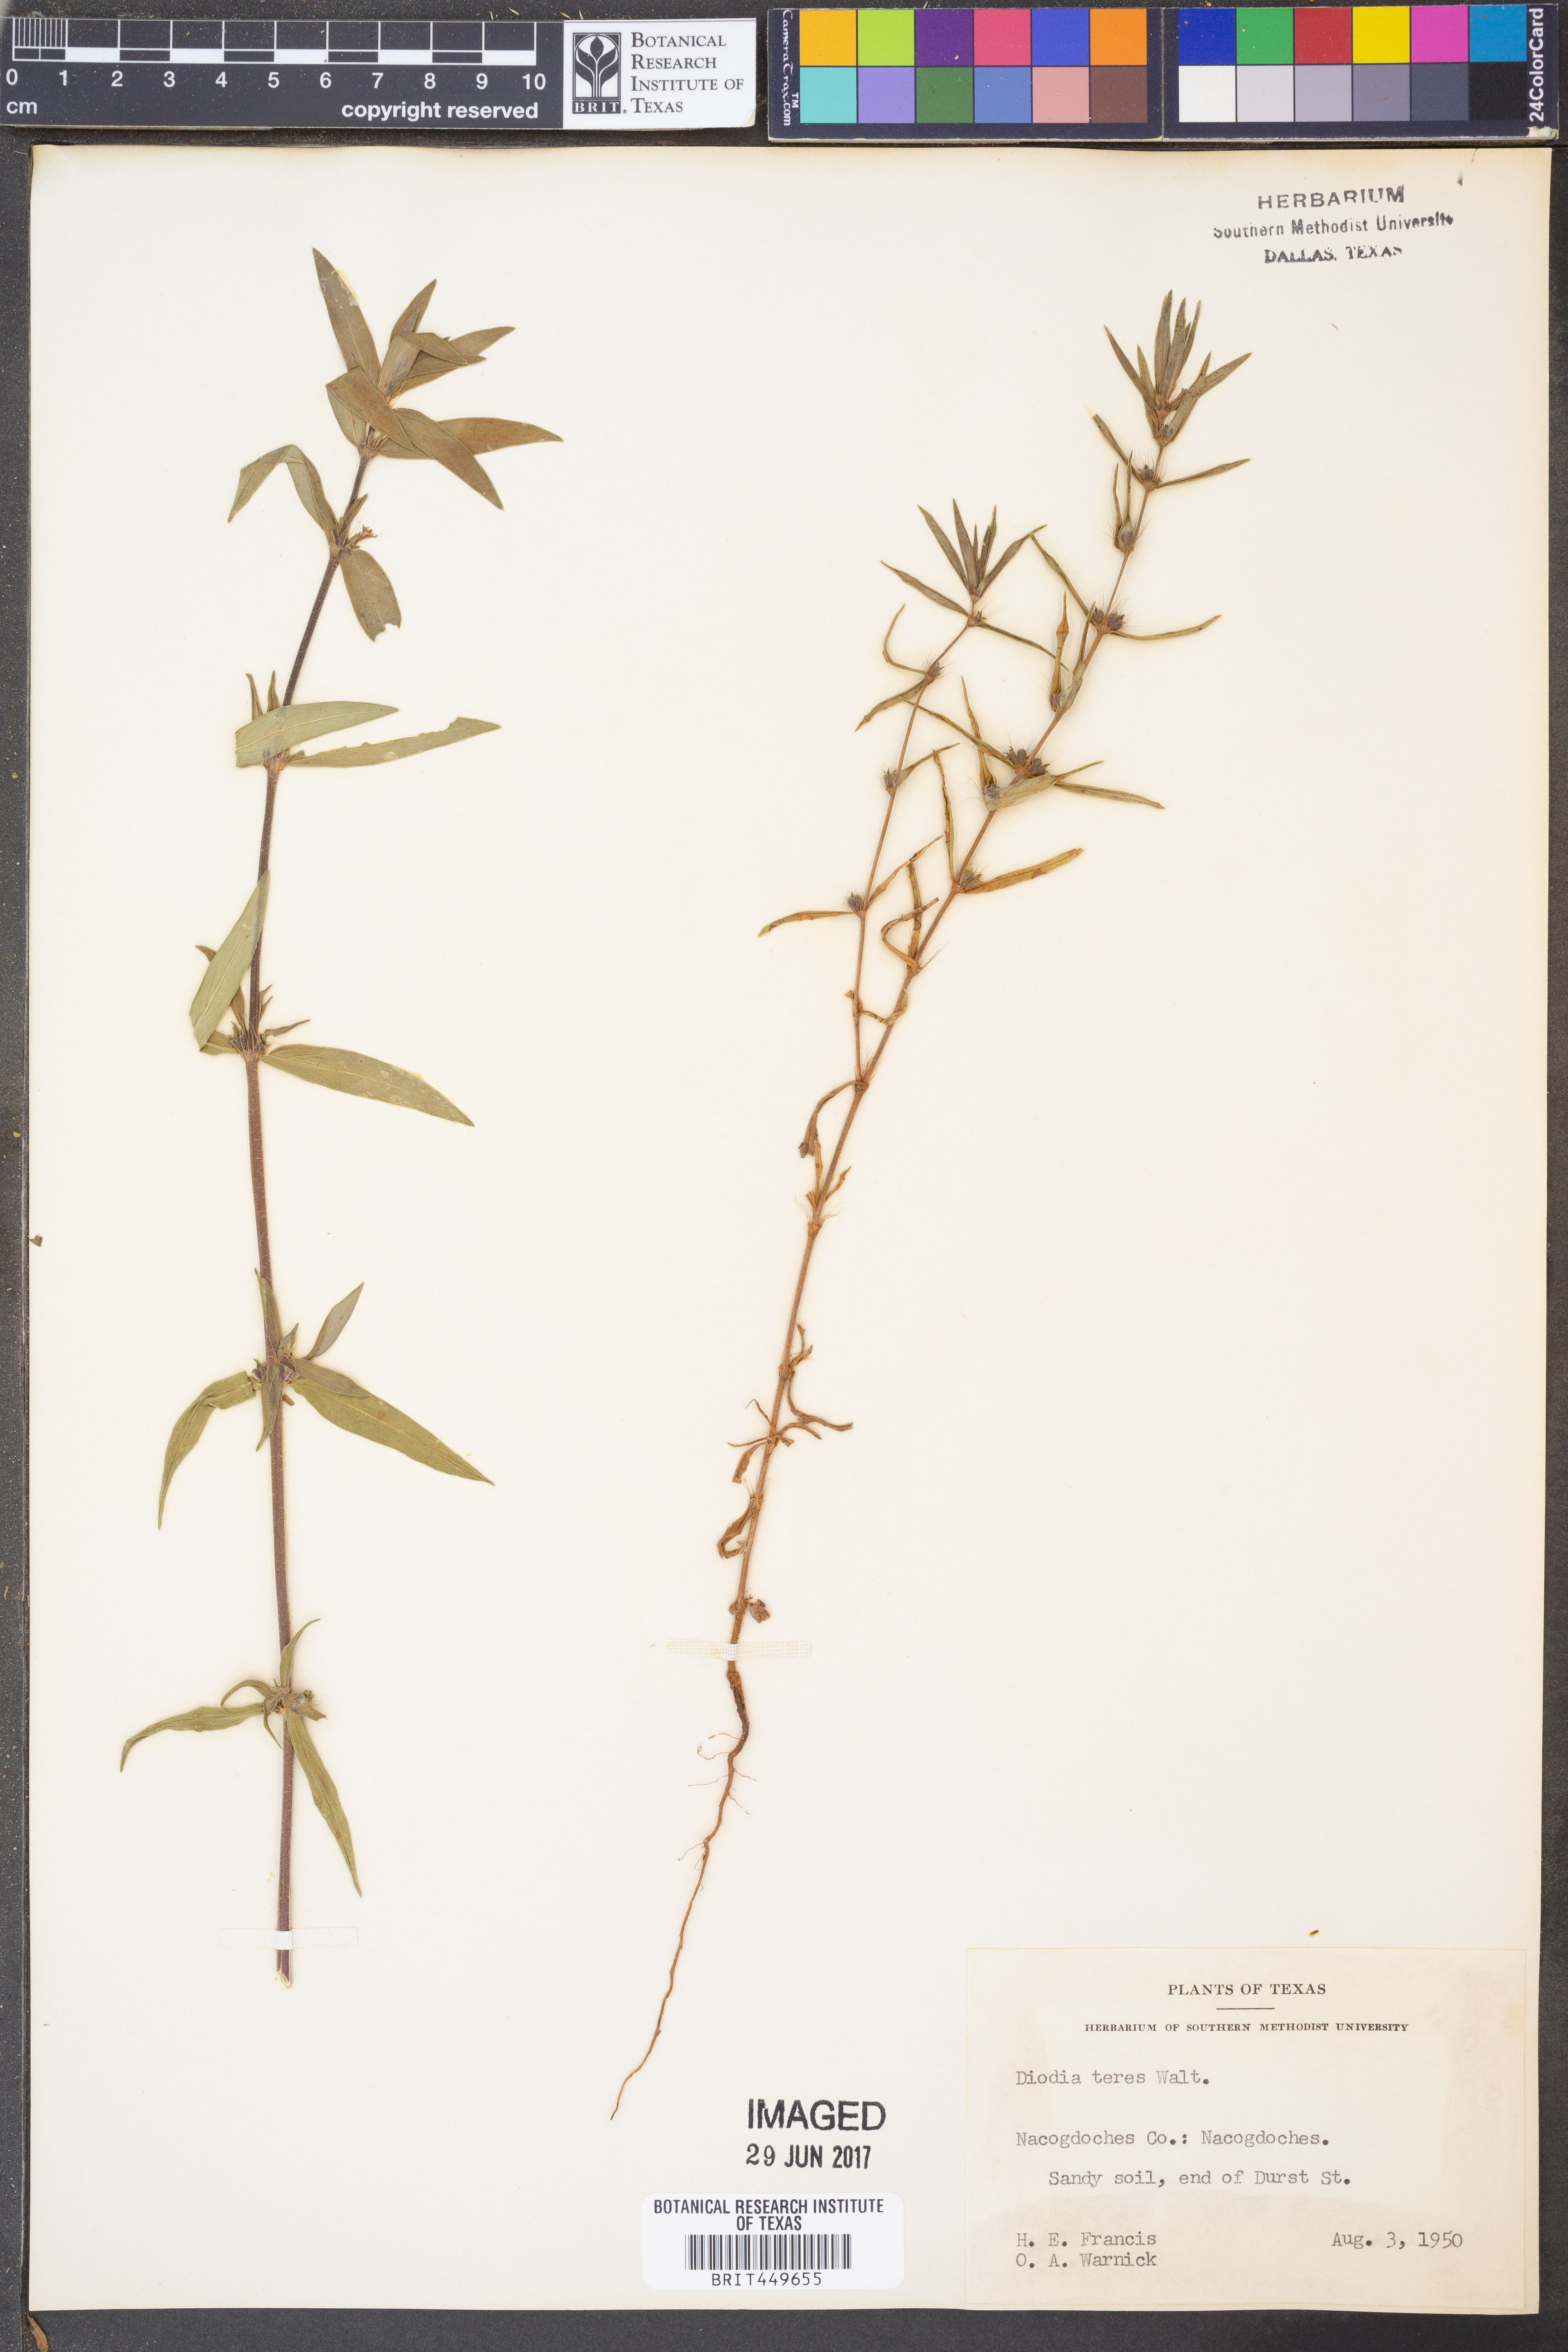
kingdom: Plantae
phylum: Tracheophyta
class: Magnoliopsida
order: Gentianales
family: Rubiaceae
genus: Hexasepalum
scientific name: Hexasepalum teres
